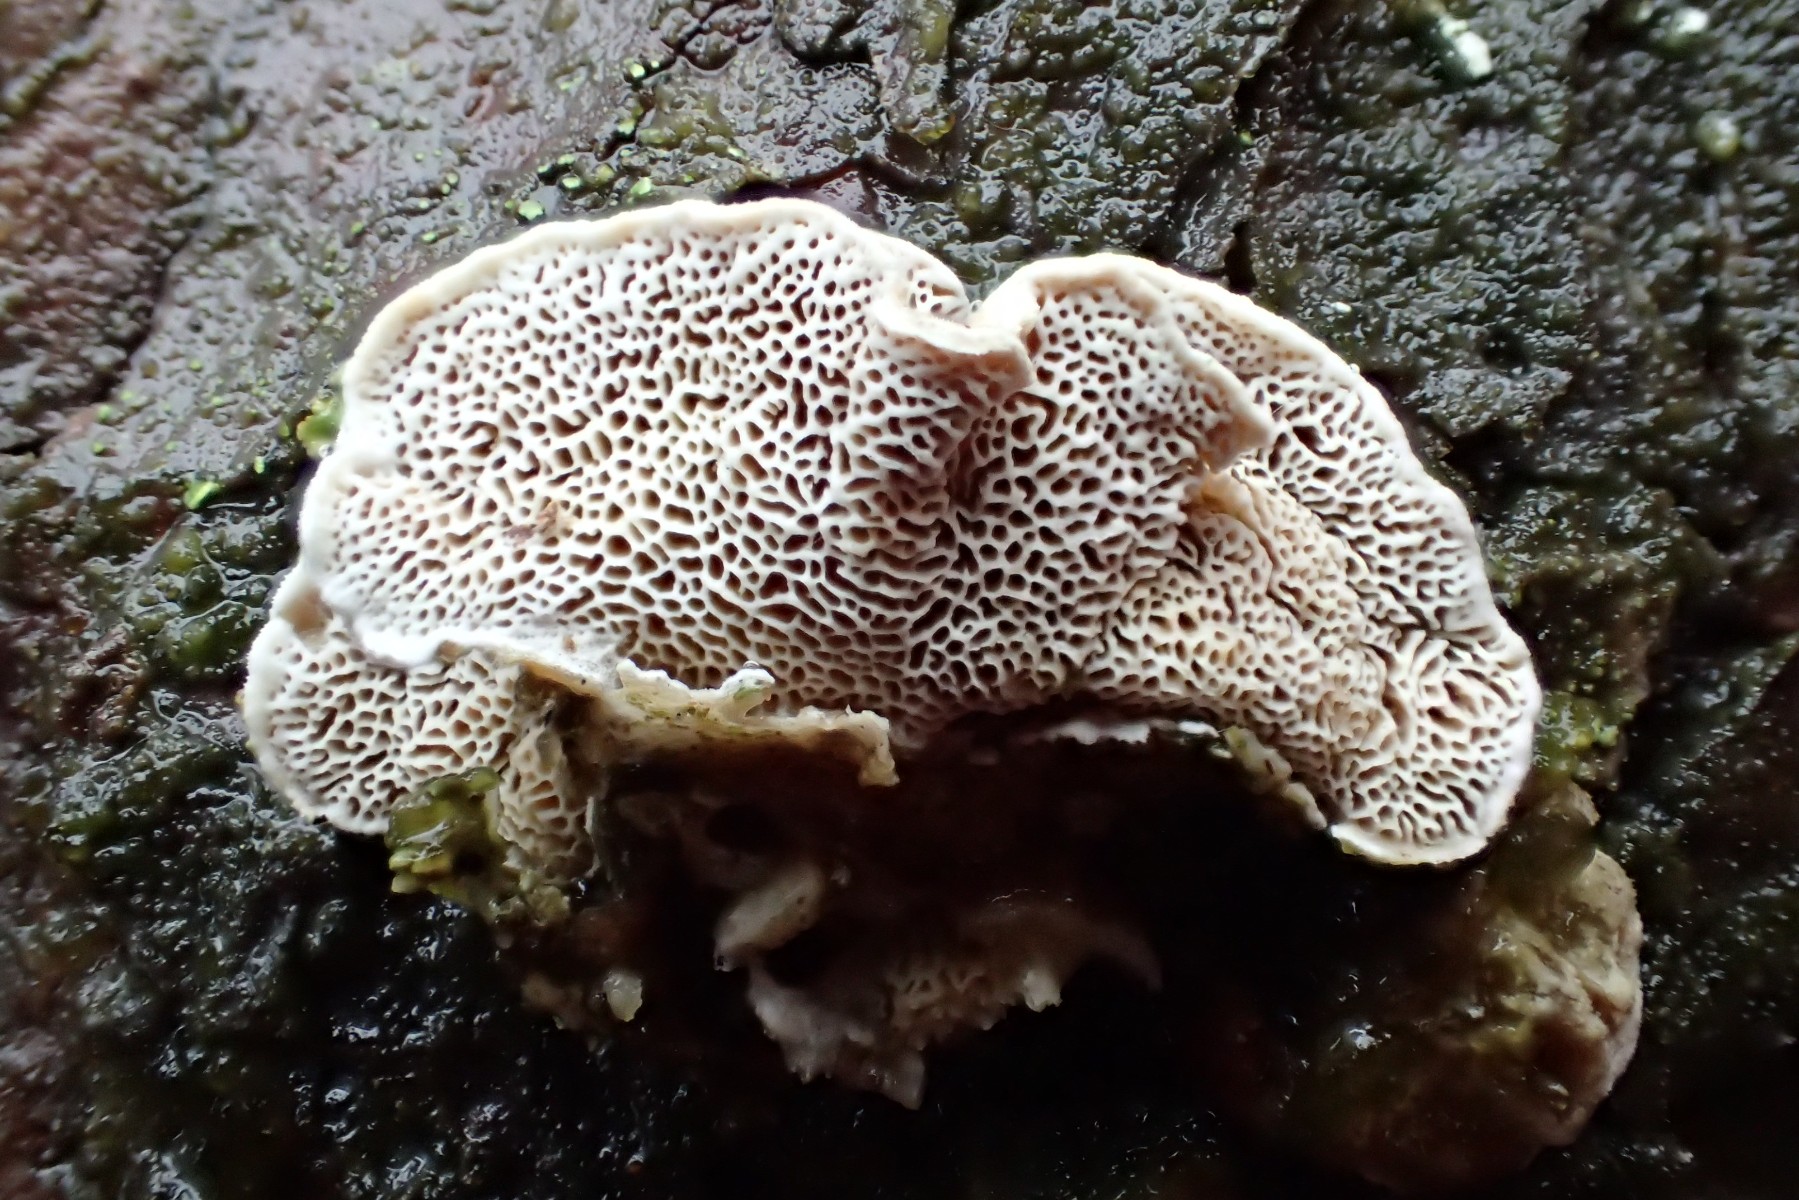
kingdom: Fungi
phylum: Basidiomycota
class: Agaricomycetes
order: Polyporales
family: Incrustoporiaceae
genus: Skeletocutis
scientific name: Skeletocutis carneogrisea
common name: rødgrå krystalporesvamp
